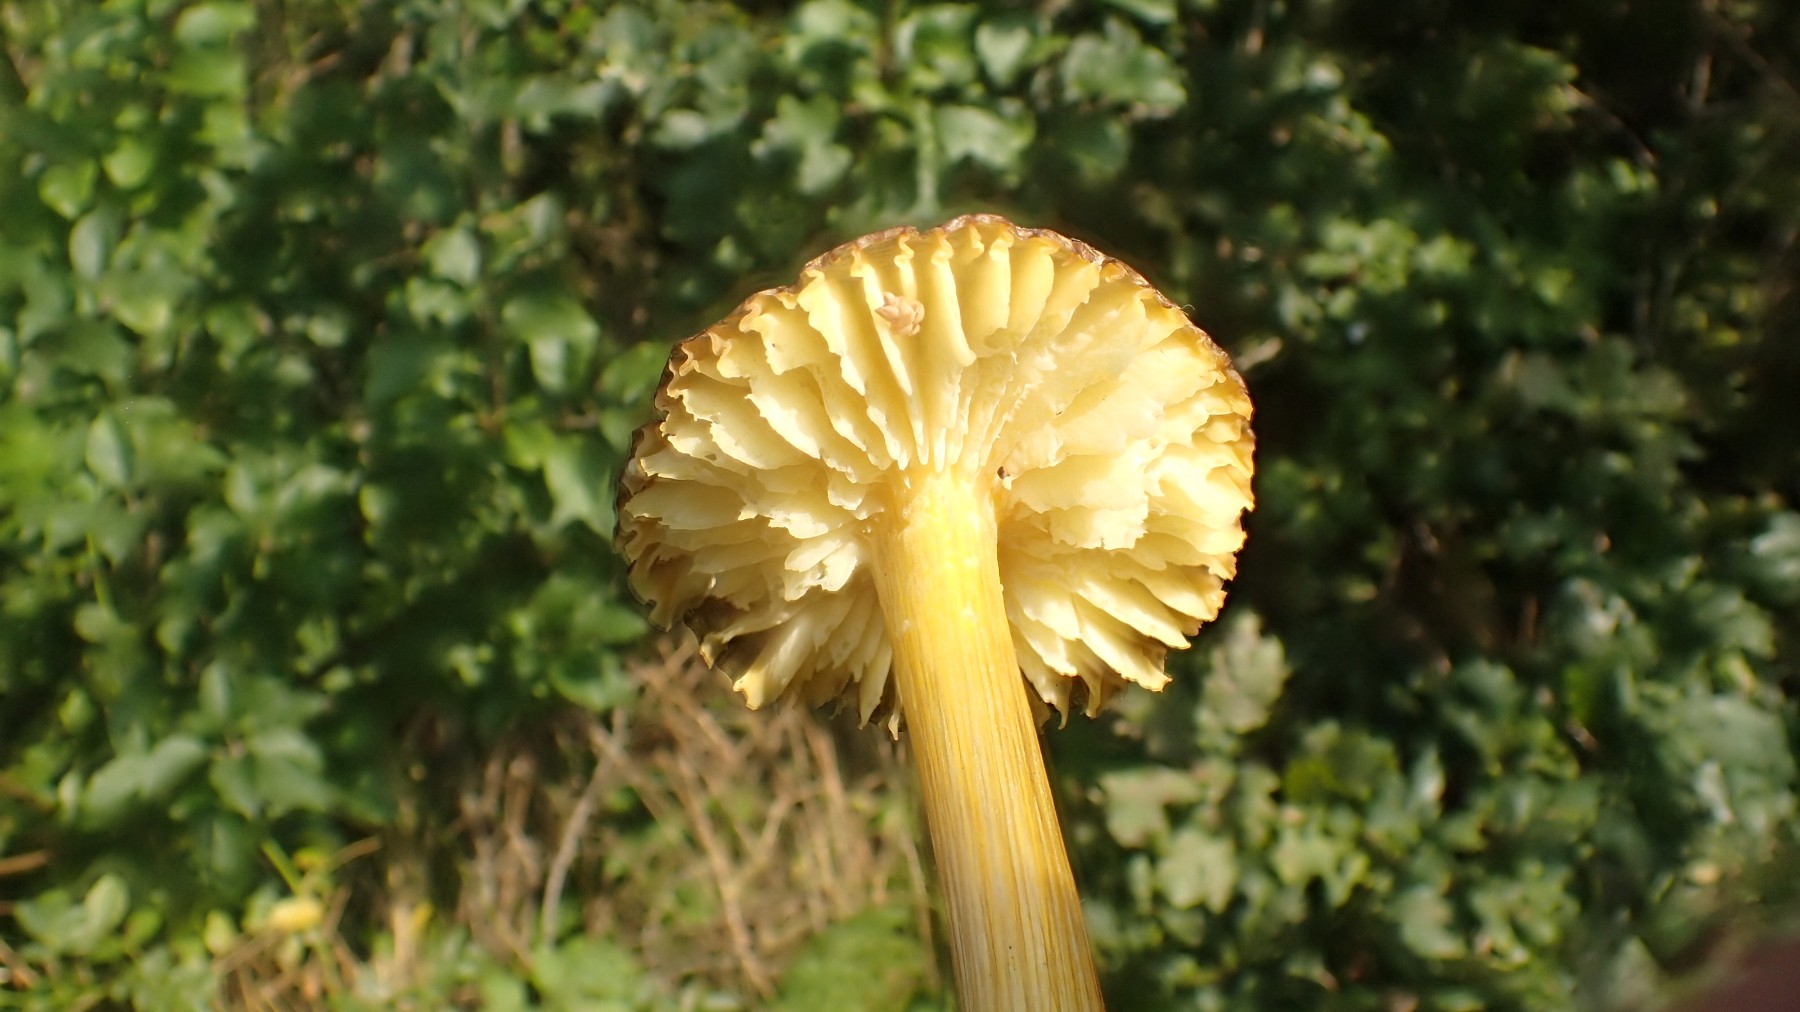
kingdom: Fungi
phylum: Basidiomycota
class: Agaricomycetes
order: Agaricales
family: Hygrophoraceae
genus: Hygrocybe
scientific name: Hygrocybe spadicea
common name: daddelbrun vokshat
